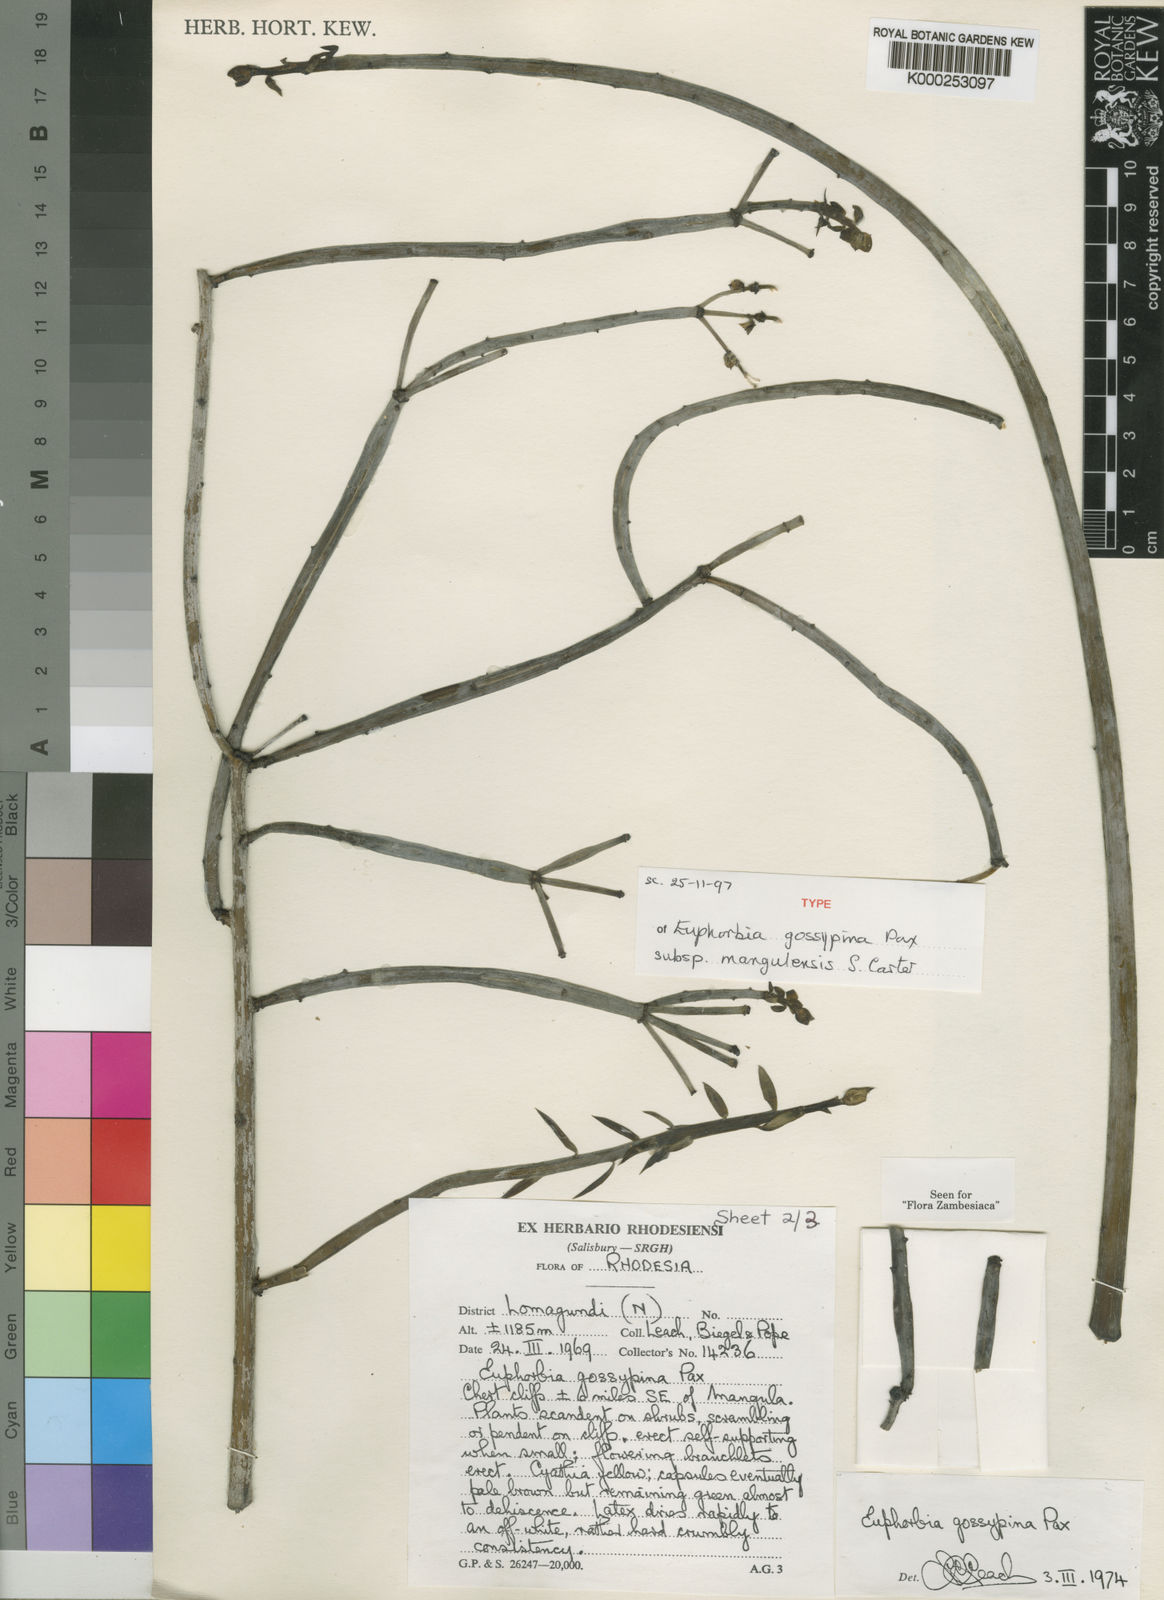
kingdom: Plantae
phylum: Tracheophyta
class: Magnoliopsida
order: Malpighiales
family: Euphorbiaceae
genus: Euphorbia
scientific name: Euphorbia gossypina
